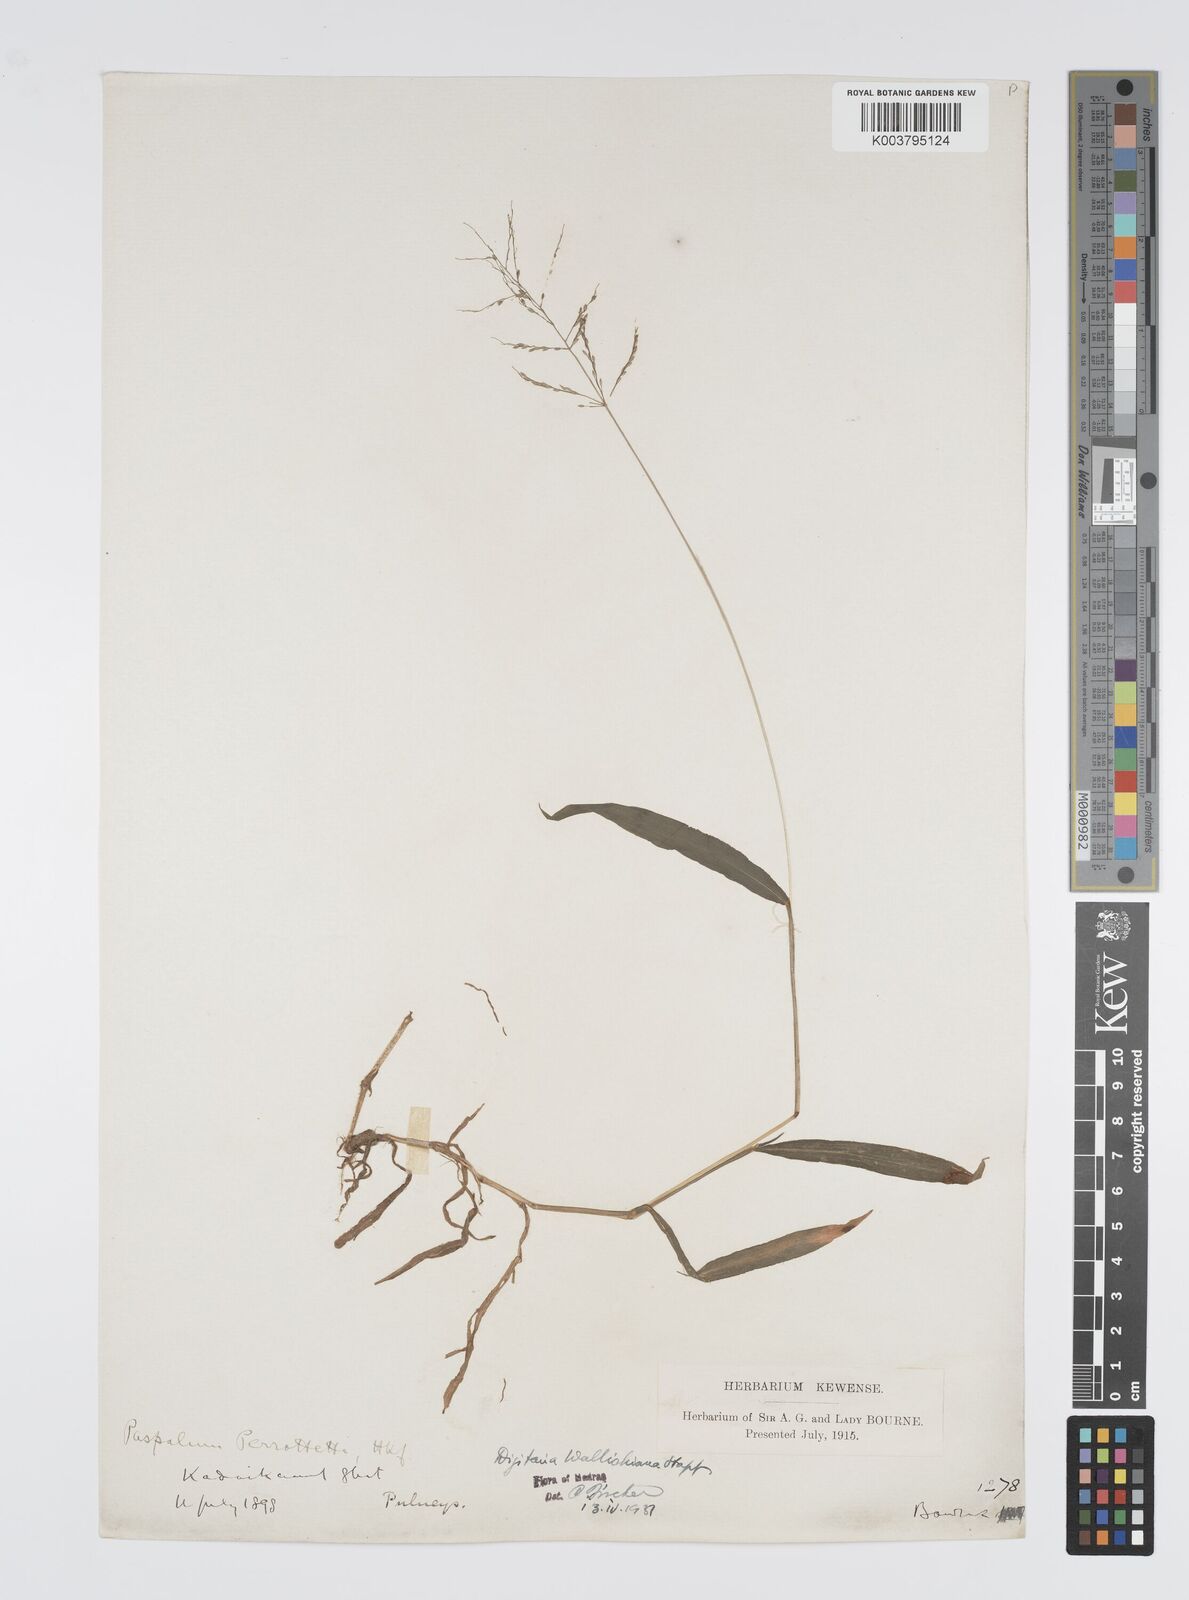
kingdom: Plantae
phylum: Tracheophyta
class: Liliopsida
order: Poales
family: Poaceae
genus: Digitaria
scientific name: Digitaria wallichiana
